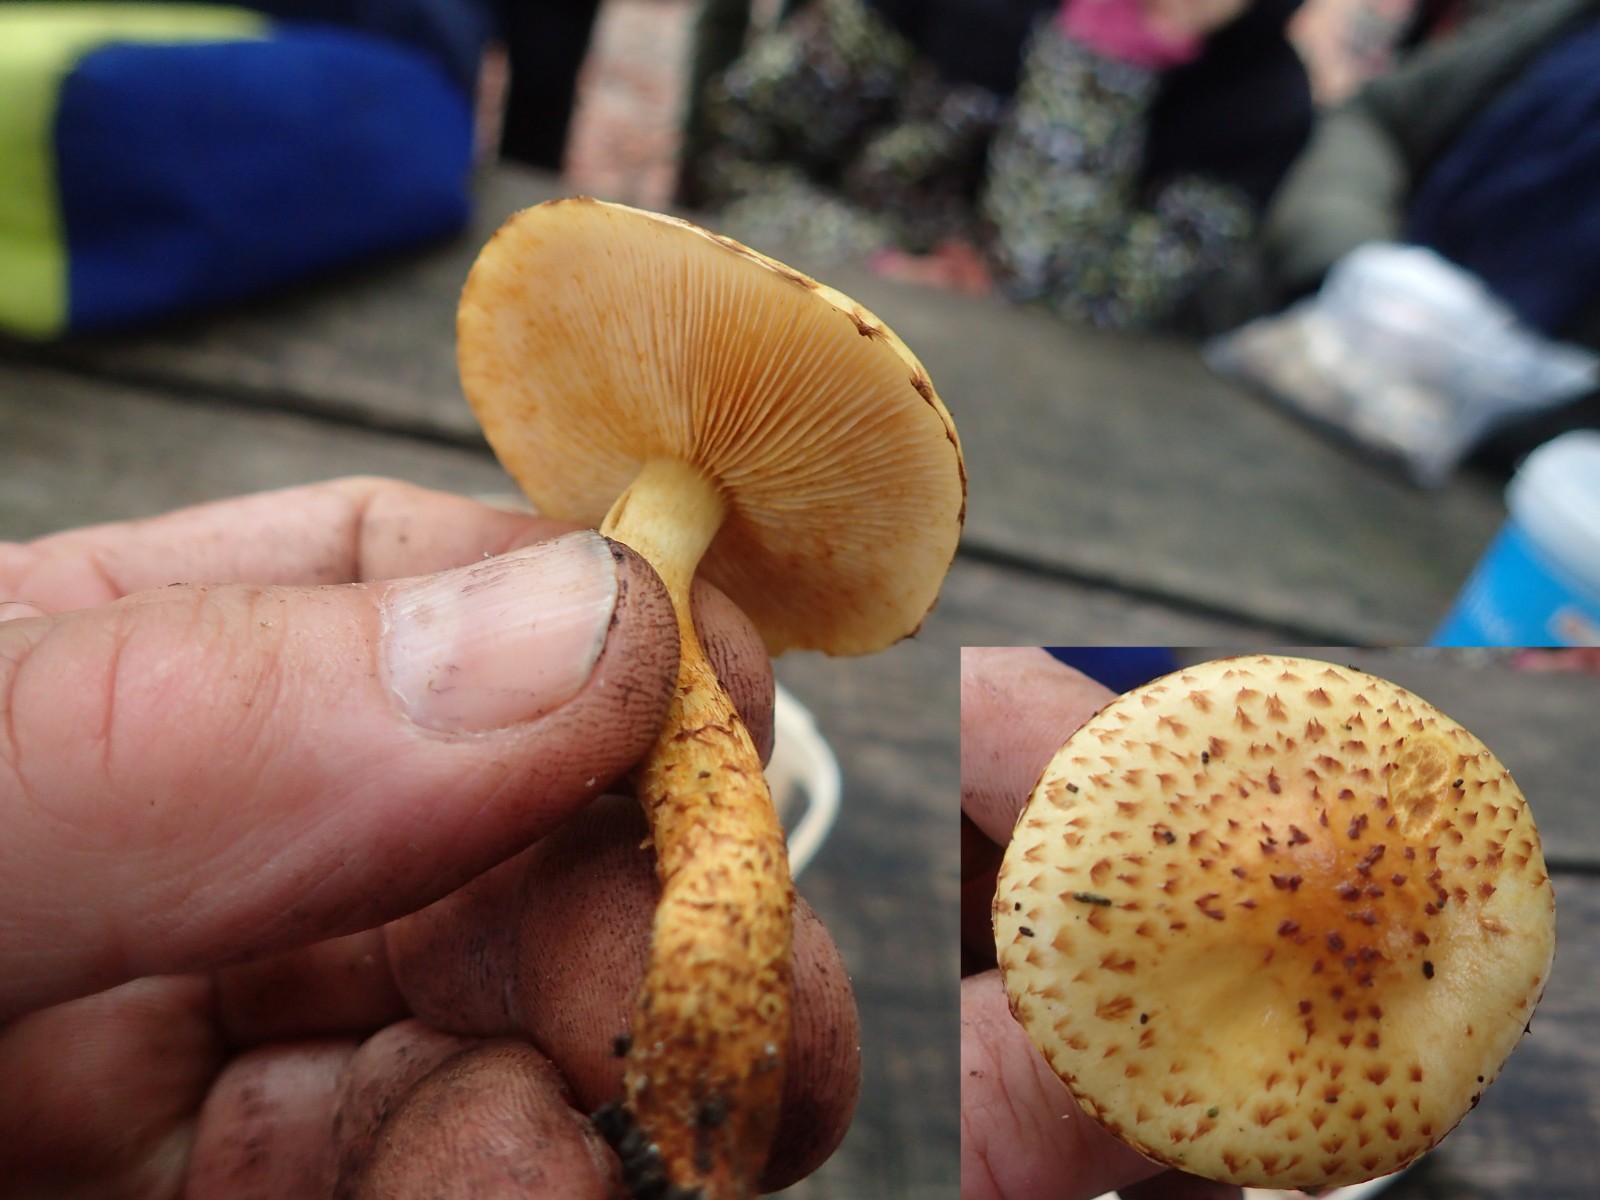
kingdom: Fungi
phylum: Basidiomycota
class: Agaricomycetes
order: Agaricales
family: Strophariaceae
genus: Pholiota
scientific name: Pholiota jahnii
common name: slimet skælhat
